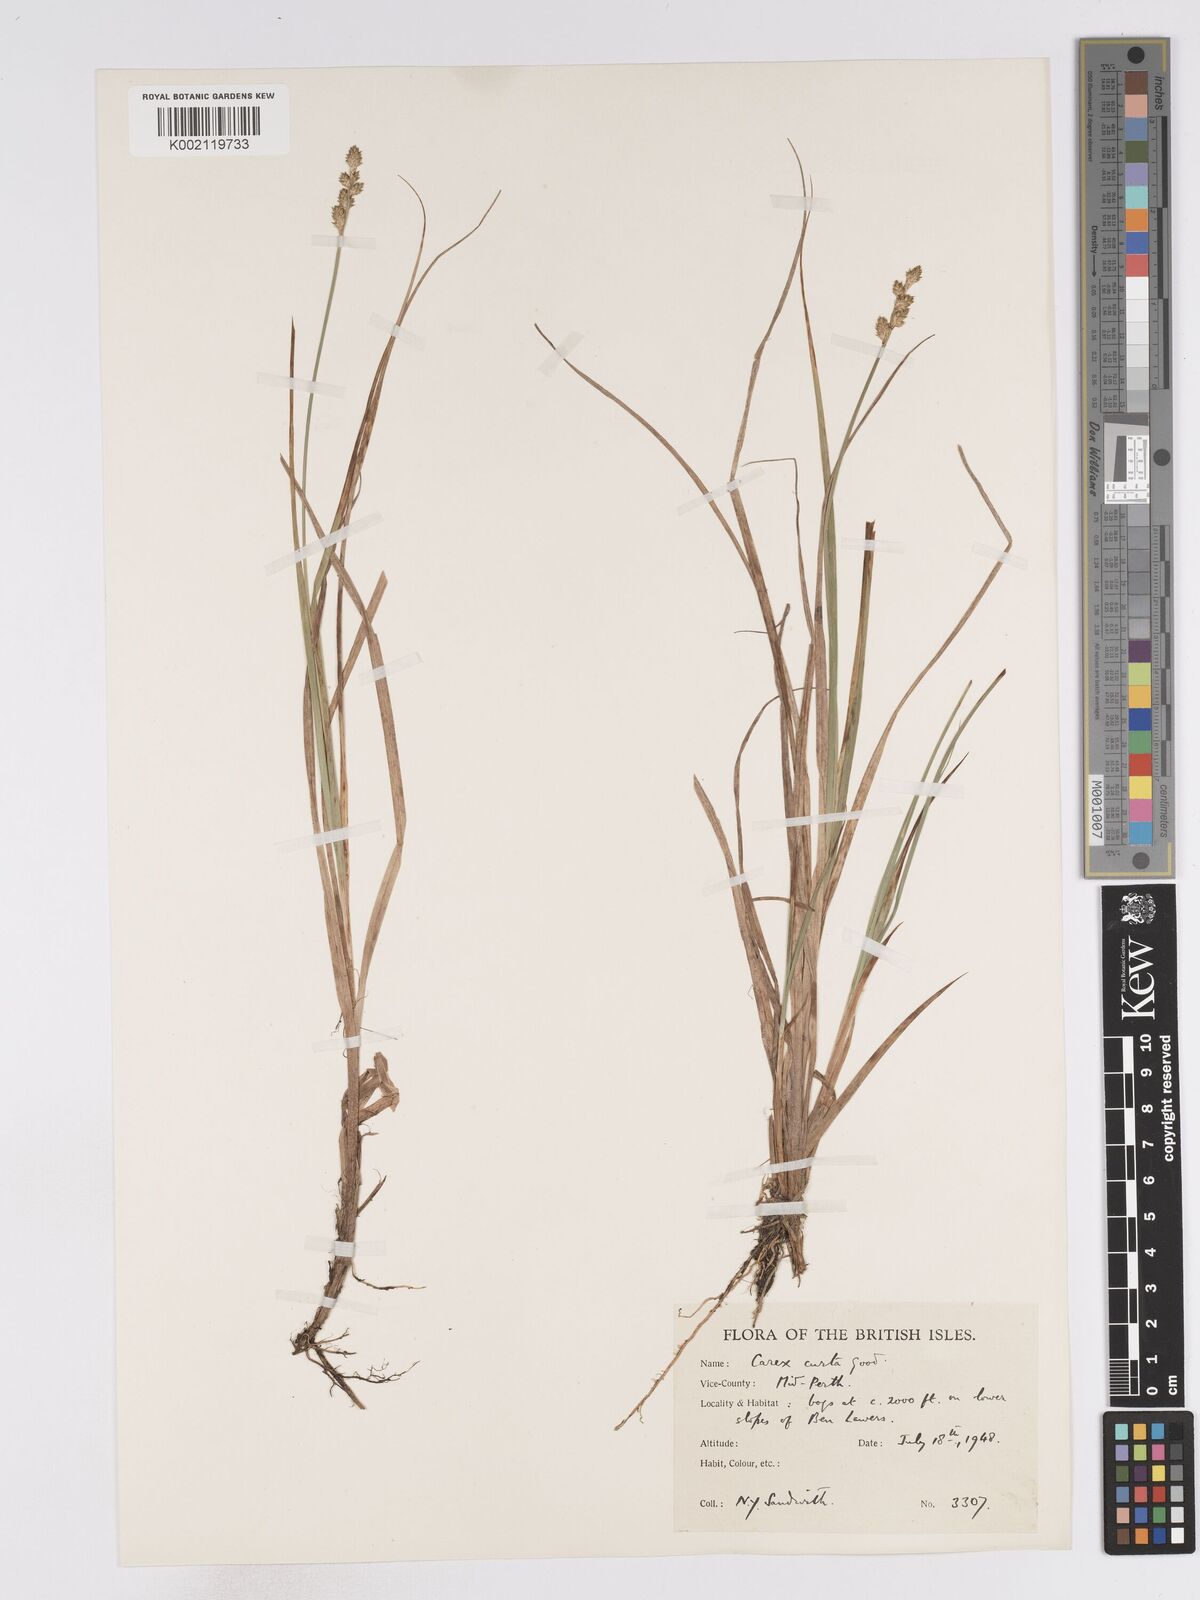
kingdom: Plantae
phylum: Tracheophyta
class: Liliopsida
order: Poales
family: Cyperaceae
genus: Carex
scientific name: Carex curta
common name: White sedge
